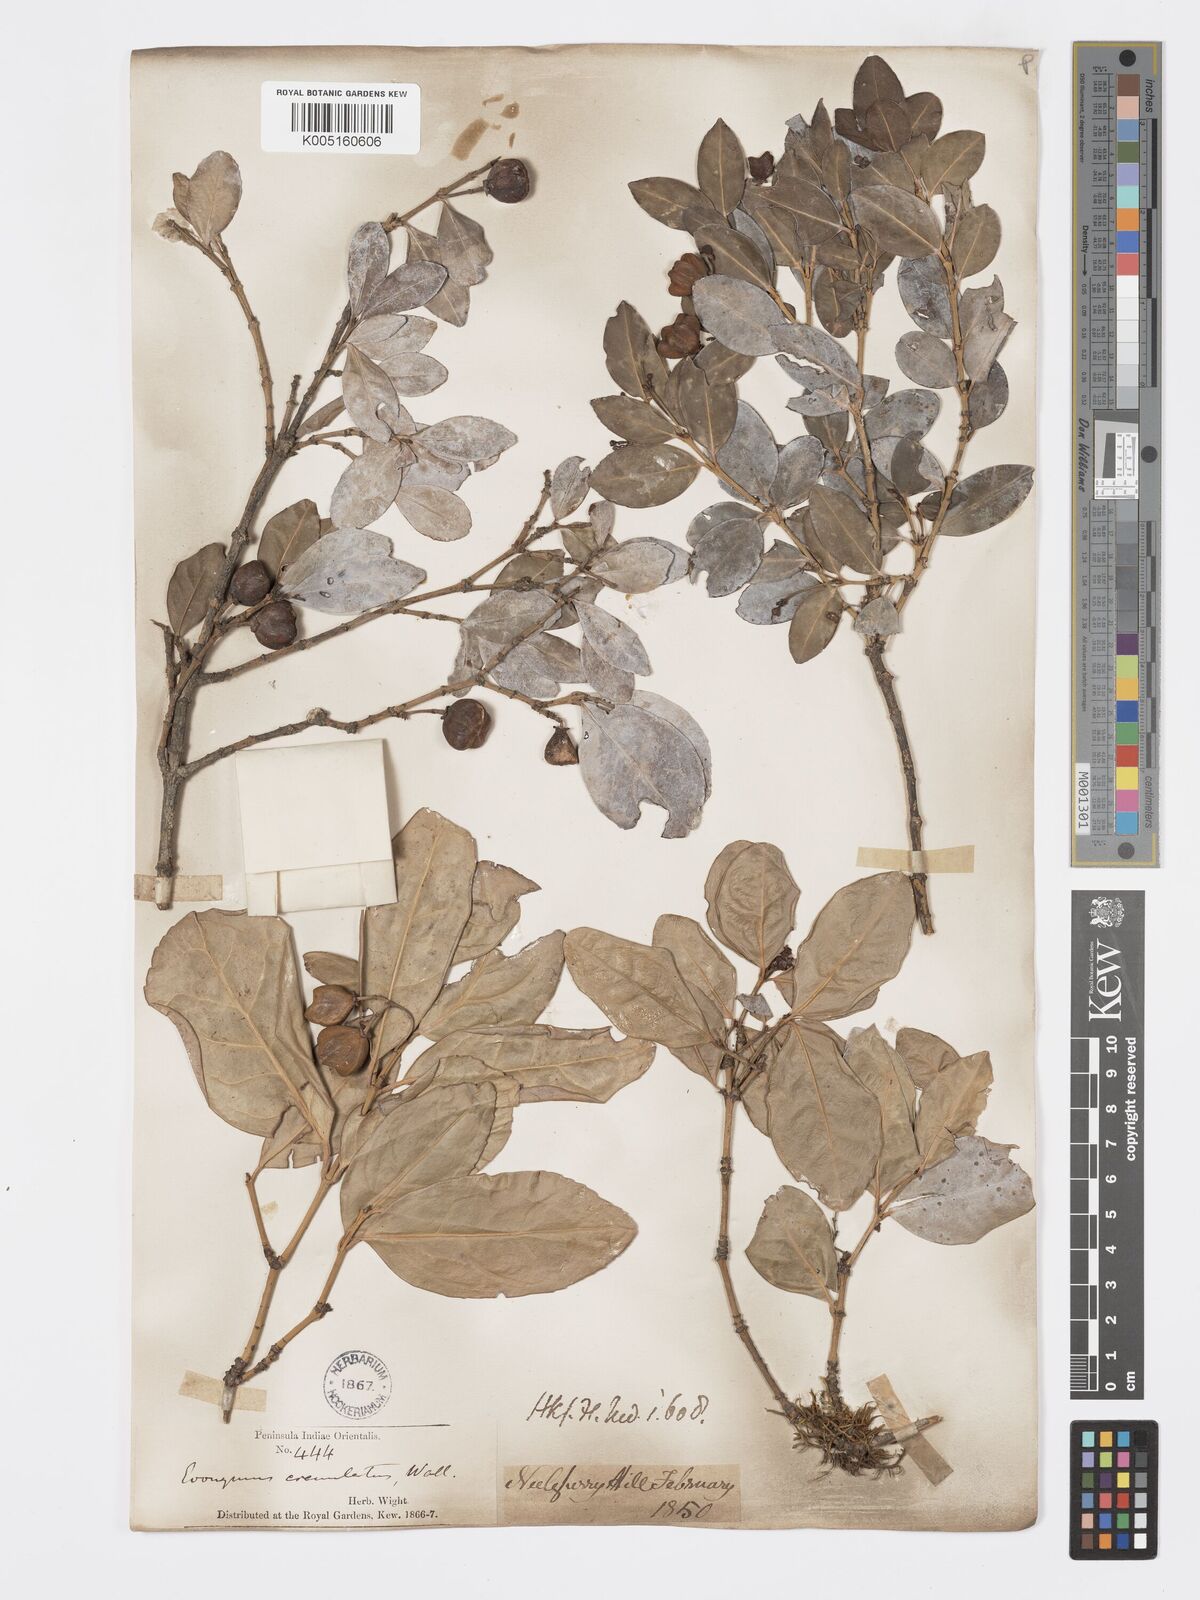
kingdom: Plantae
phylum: Tracheophyta
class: Magnoliopsida
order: Celastrales
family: Celastraceae
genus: Euonymus
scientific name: Euonymus crenulatus
